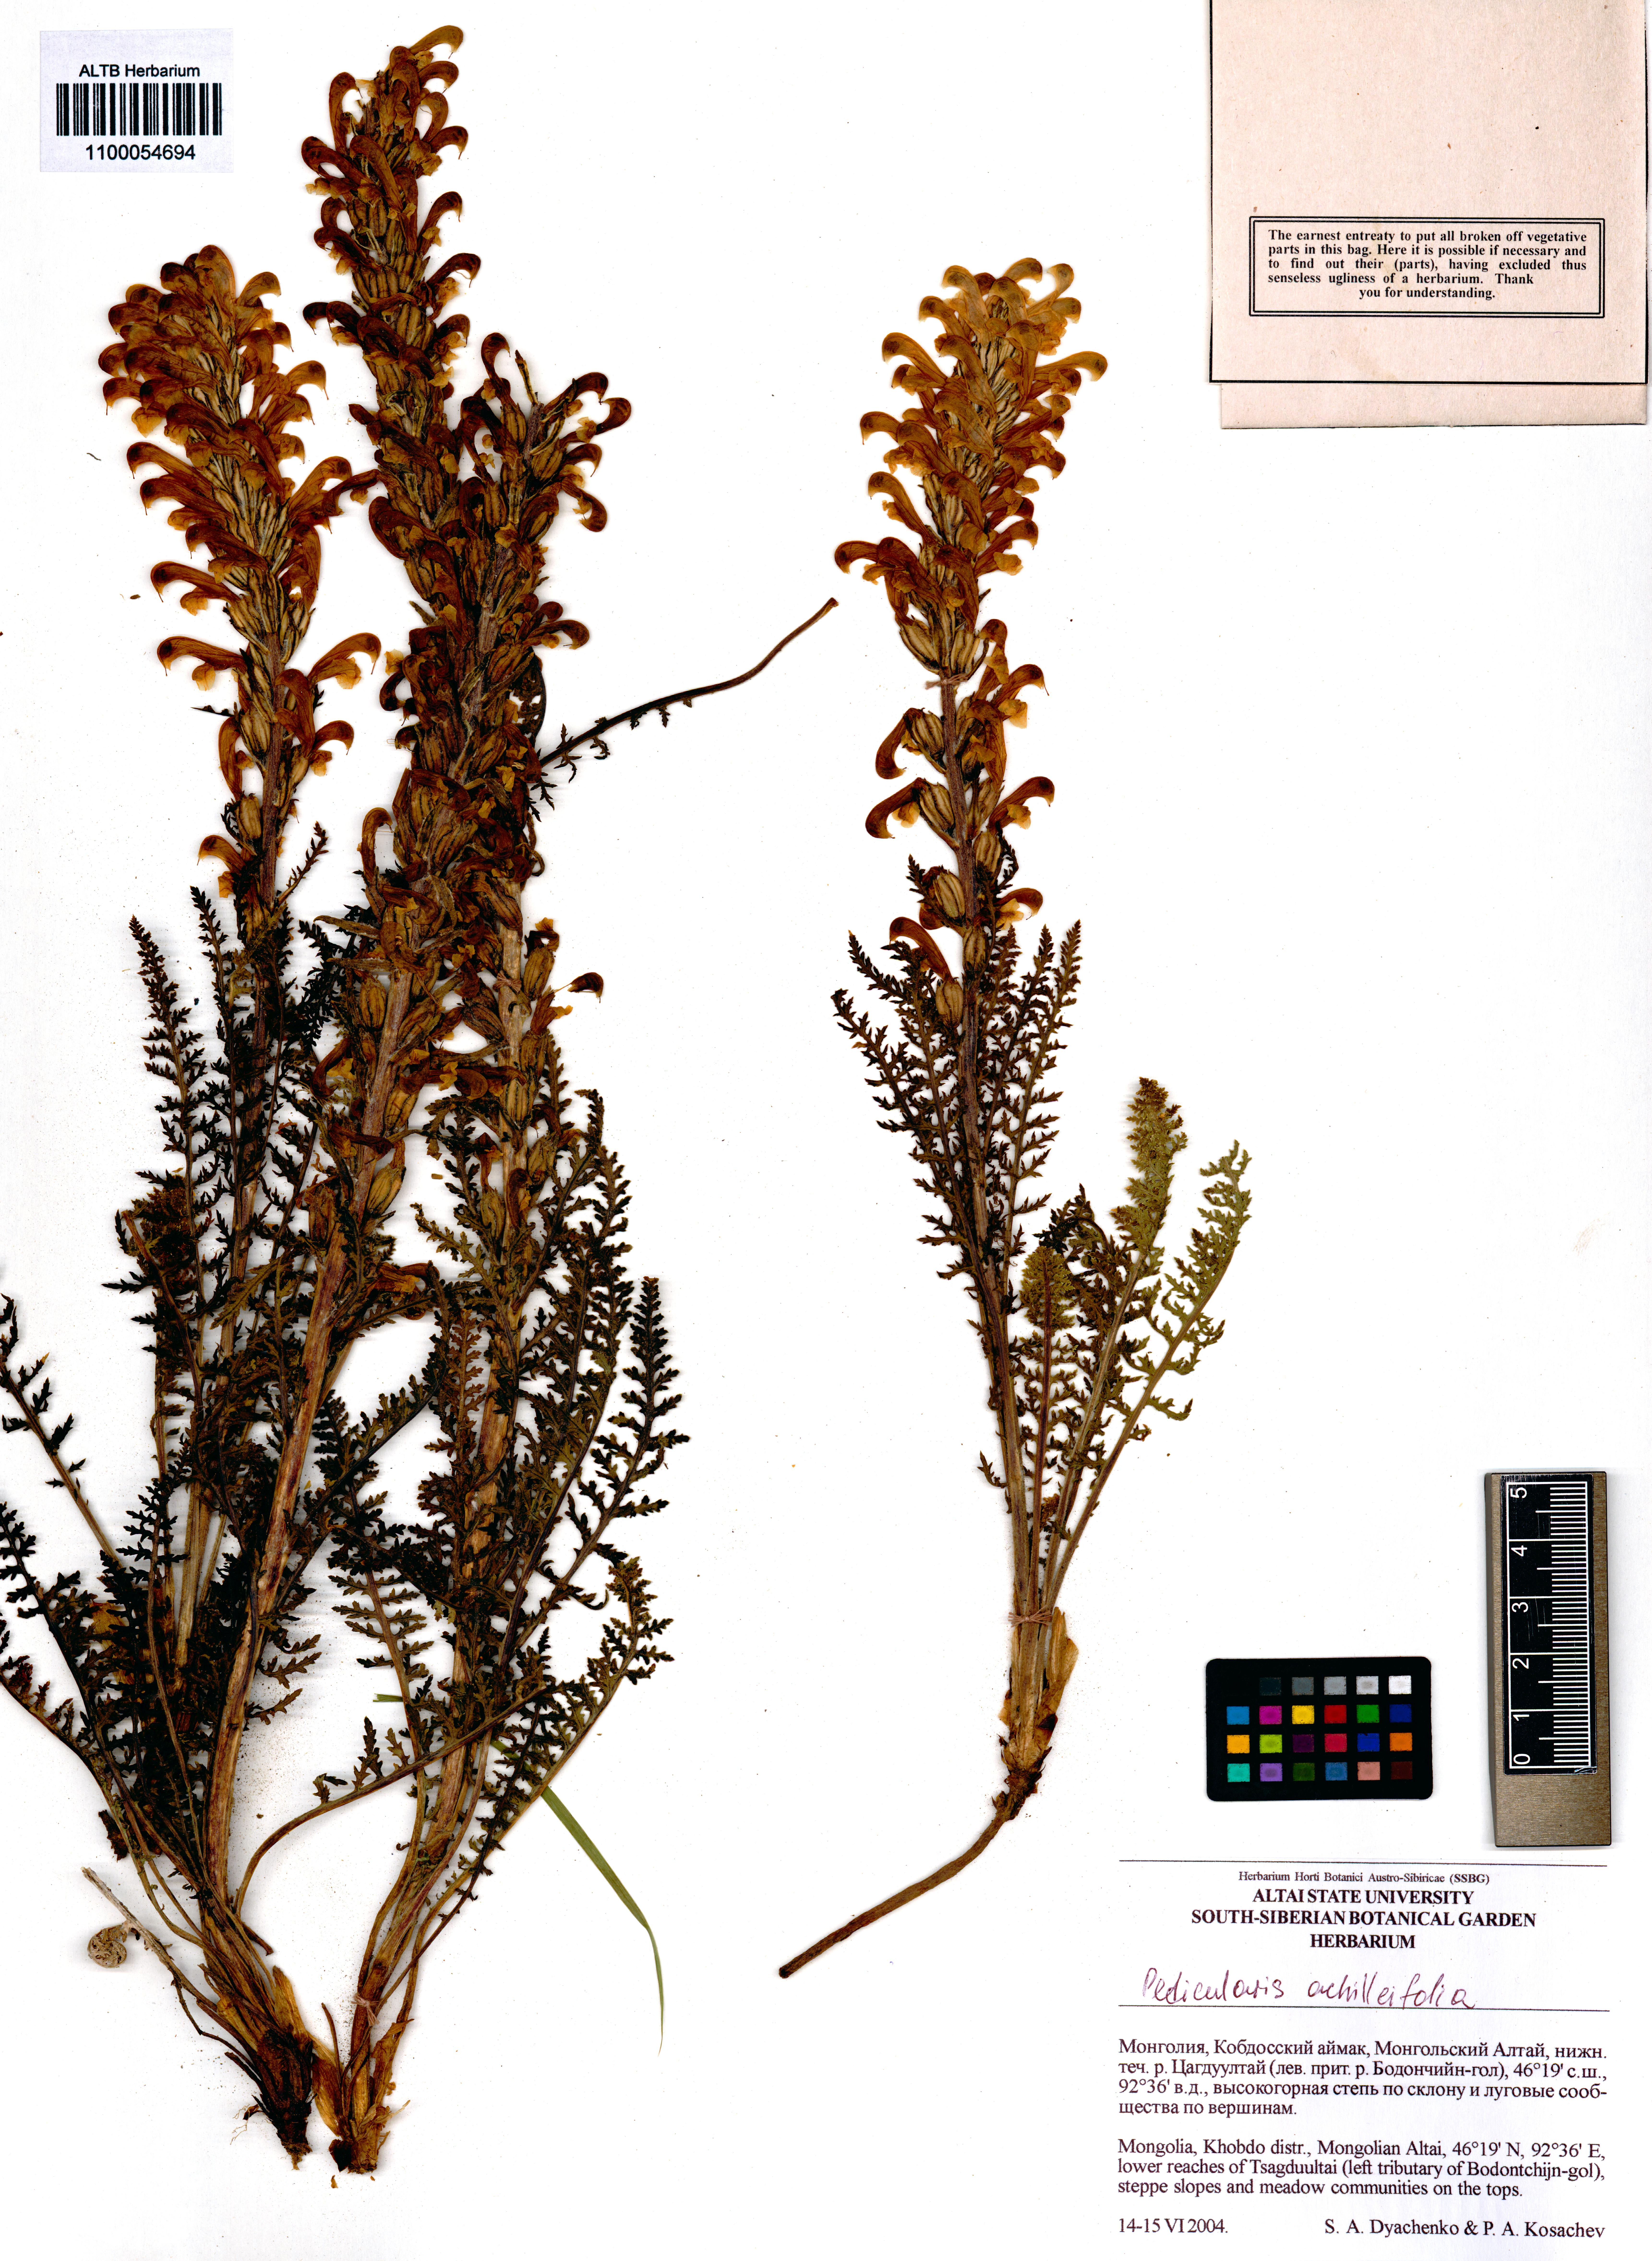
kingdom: Plantae
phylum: Tracheophyta
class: Magnoliopsida
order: Lamiales
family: Orobanchaceae
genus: Pedicularis
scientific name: Pedicularis achilleifolia
